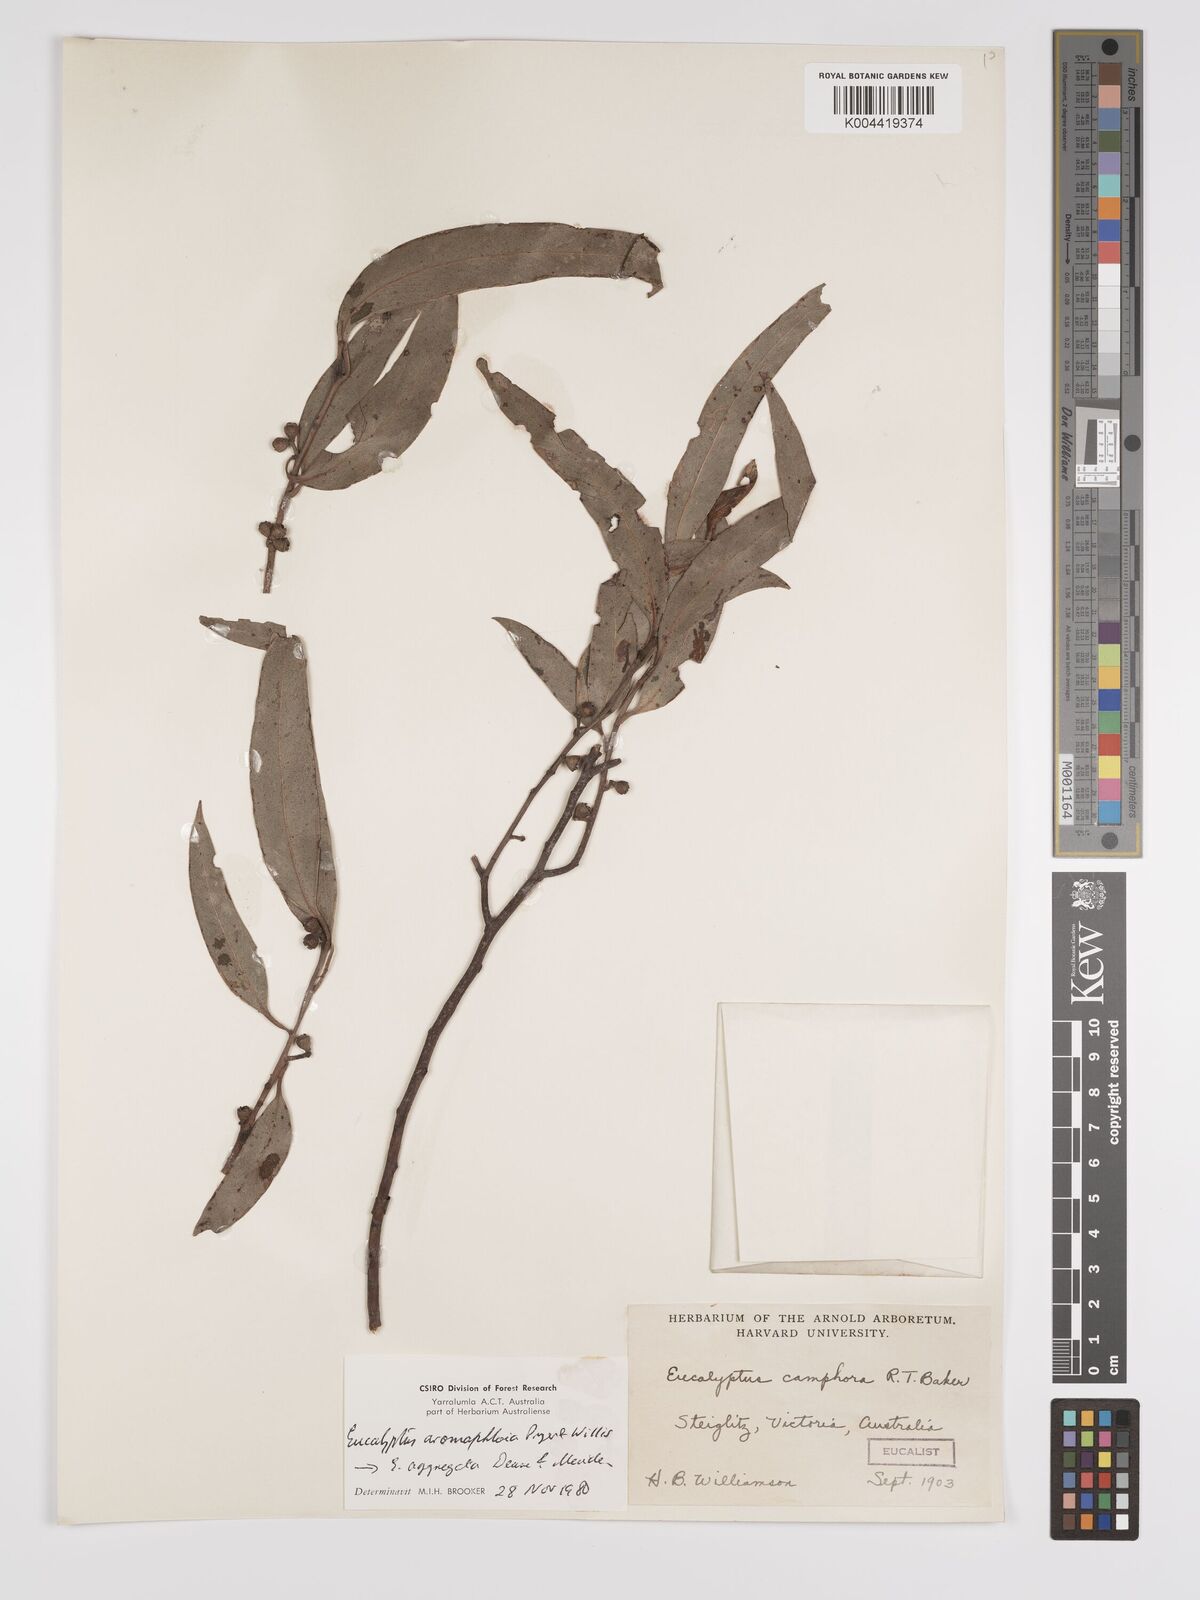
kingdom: Plantae
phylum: Tracheophyta
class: Magnoliopsida
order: Myrtales
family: Myrtaceae
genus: Eucalyptus
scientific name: Eucalyptus aggregata
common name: Black gum
